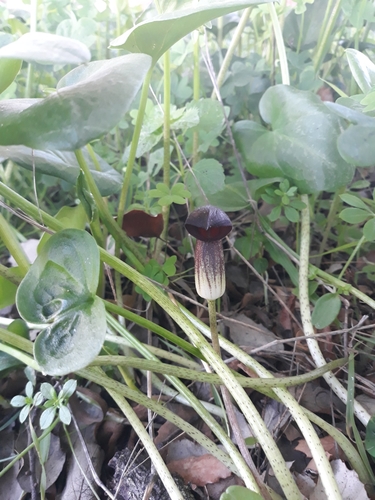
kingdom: Plantae
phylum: Tracheophyta
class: Liliopsida
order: Alismatales
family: Araceae
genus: Arisarum
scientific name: Arisarum simorrhinum
